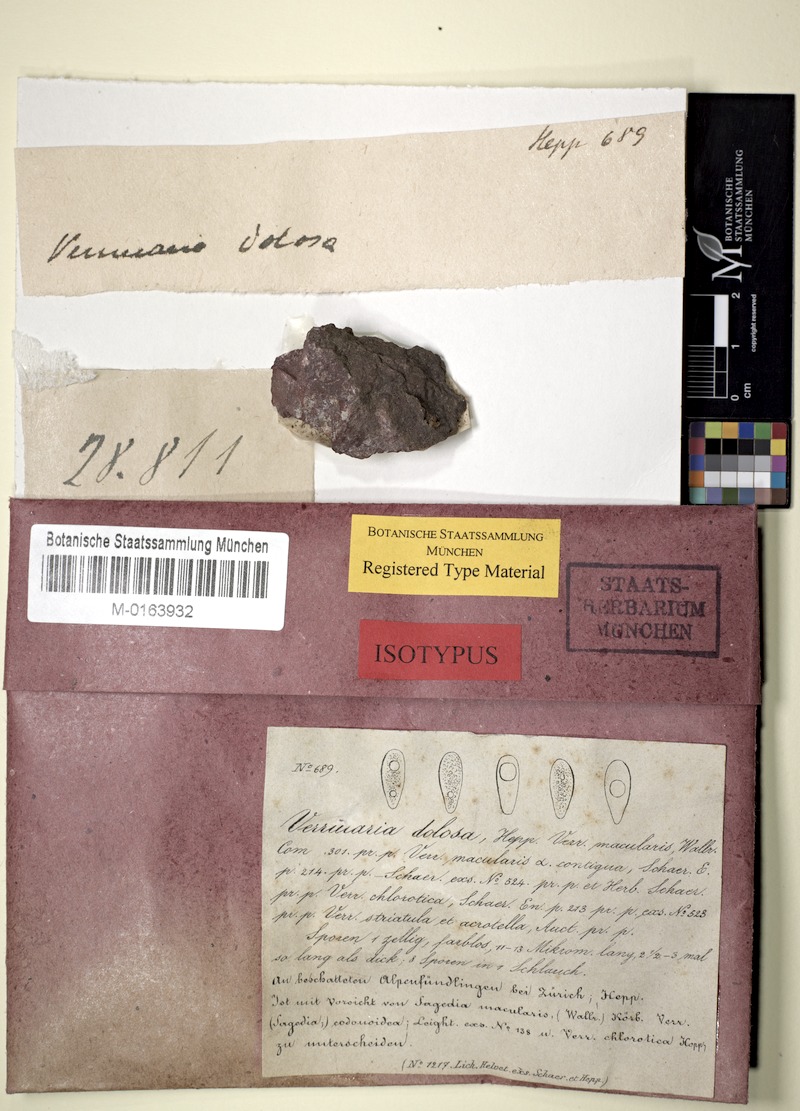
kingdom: Fungi
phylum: Ascomycota
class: Eurotiomycetes
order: Verrucariales
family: Verrucariaceae
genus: Verrucaria
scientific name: Verrucaria dolosa
